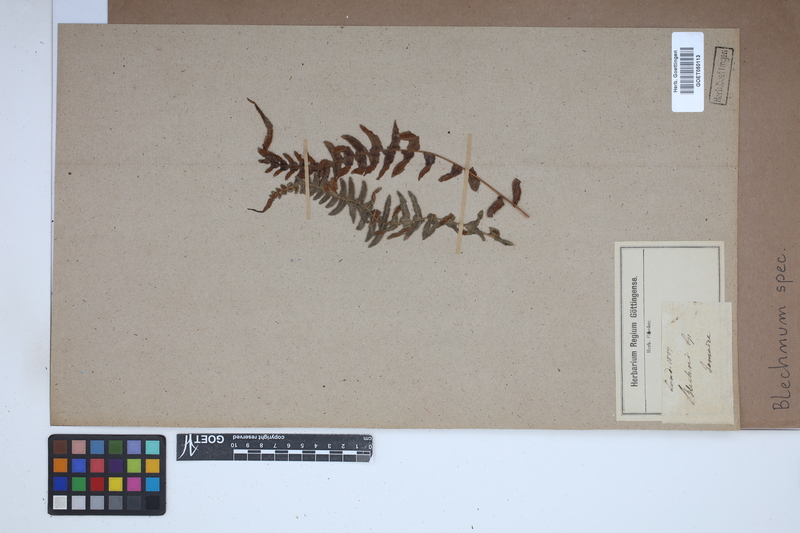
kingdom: Plantae
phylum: Tracheophyta
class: Polypodiopsida
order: Polypodiales
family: Blechnaceae
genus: Blechnum
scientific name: Blechnum
